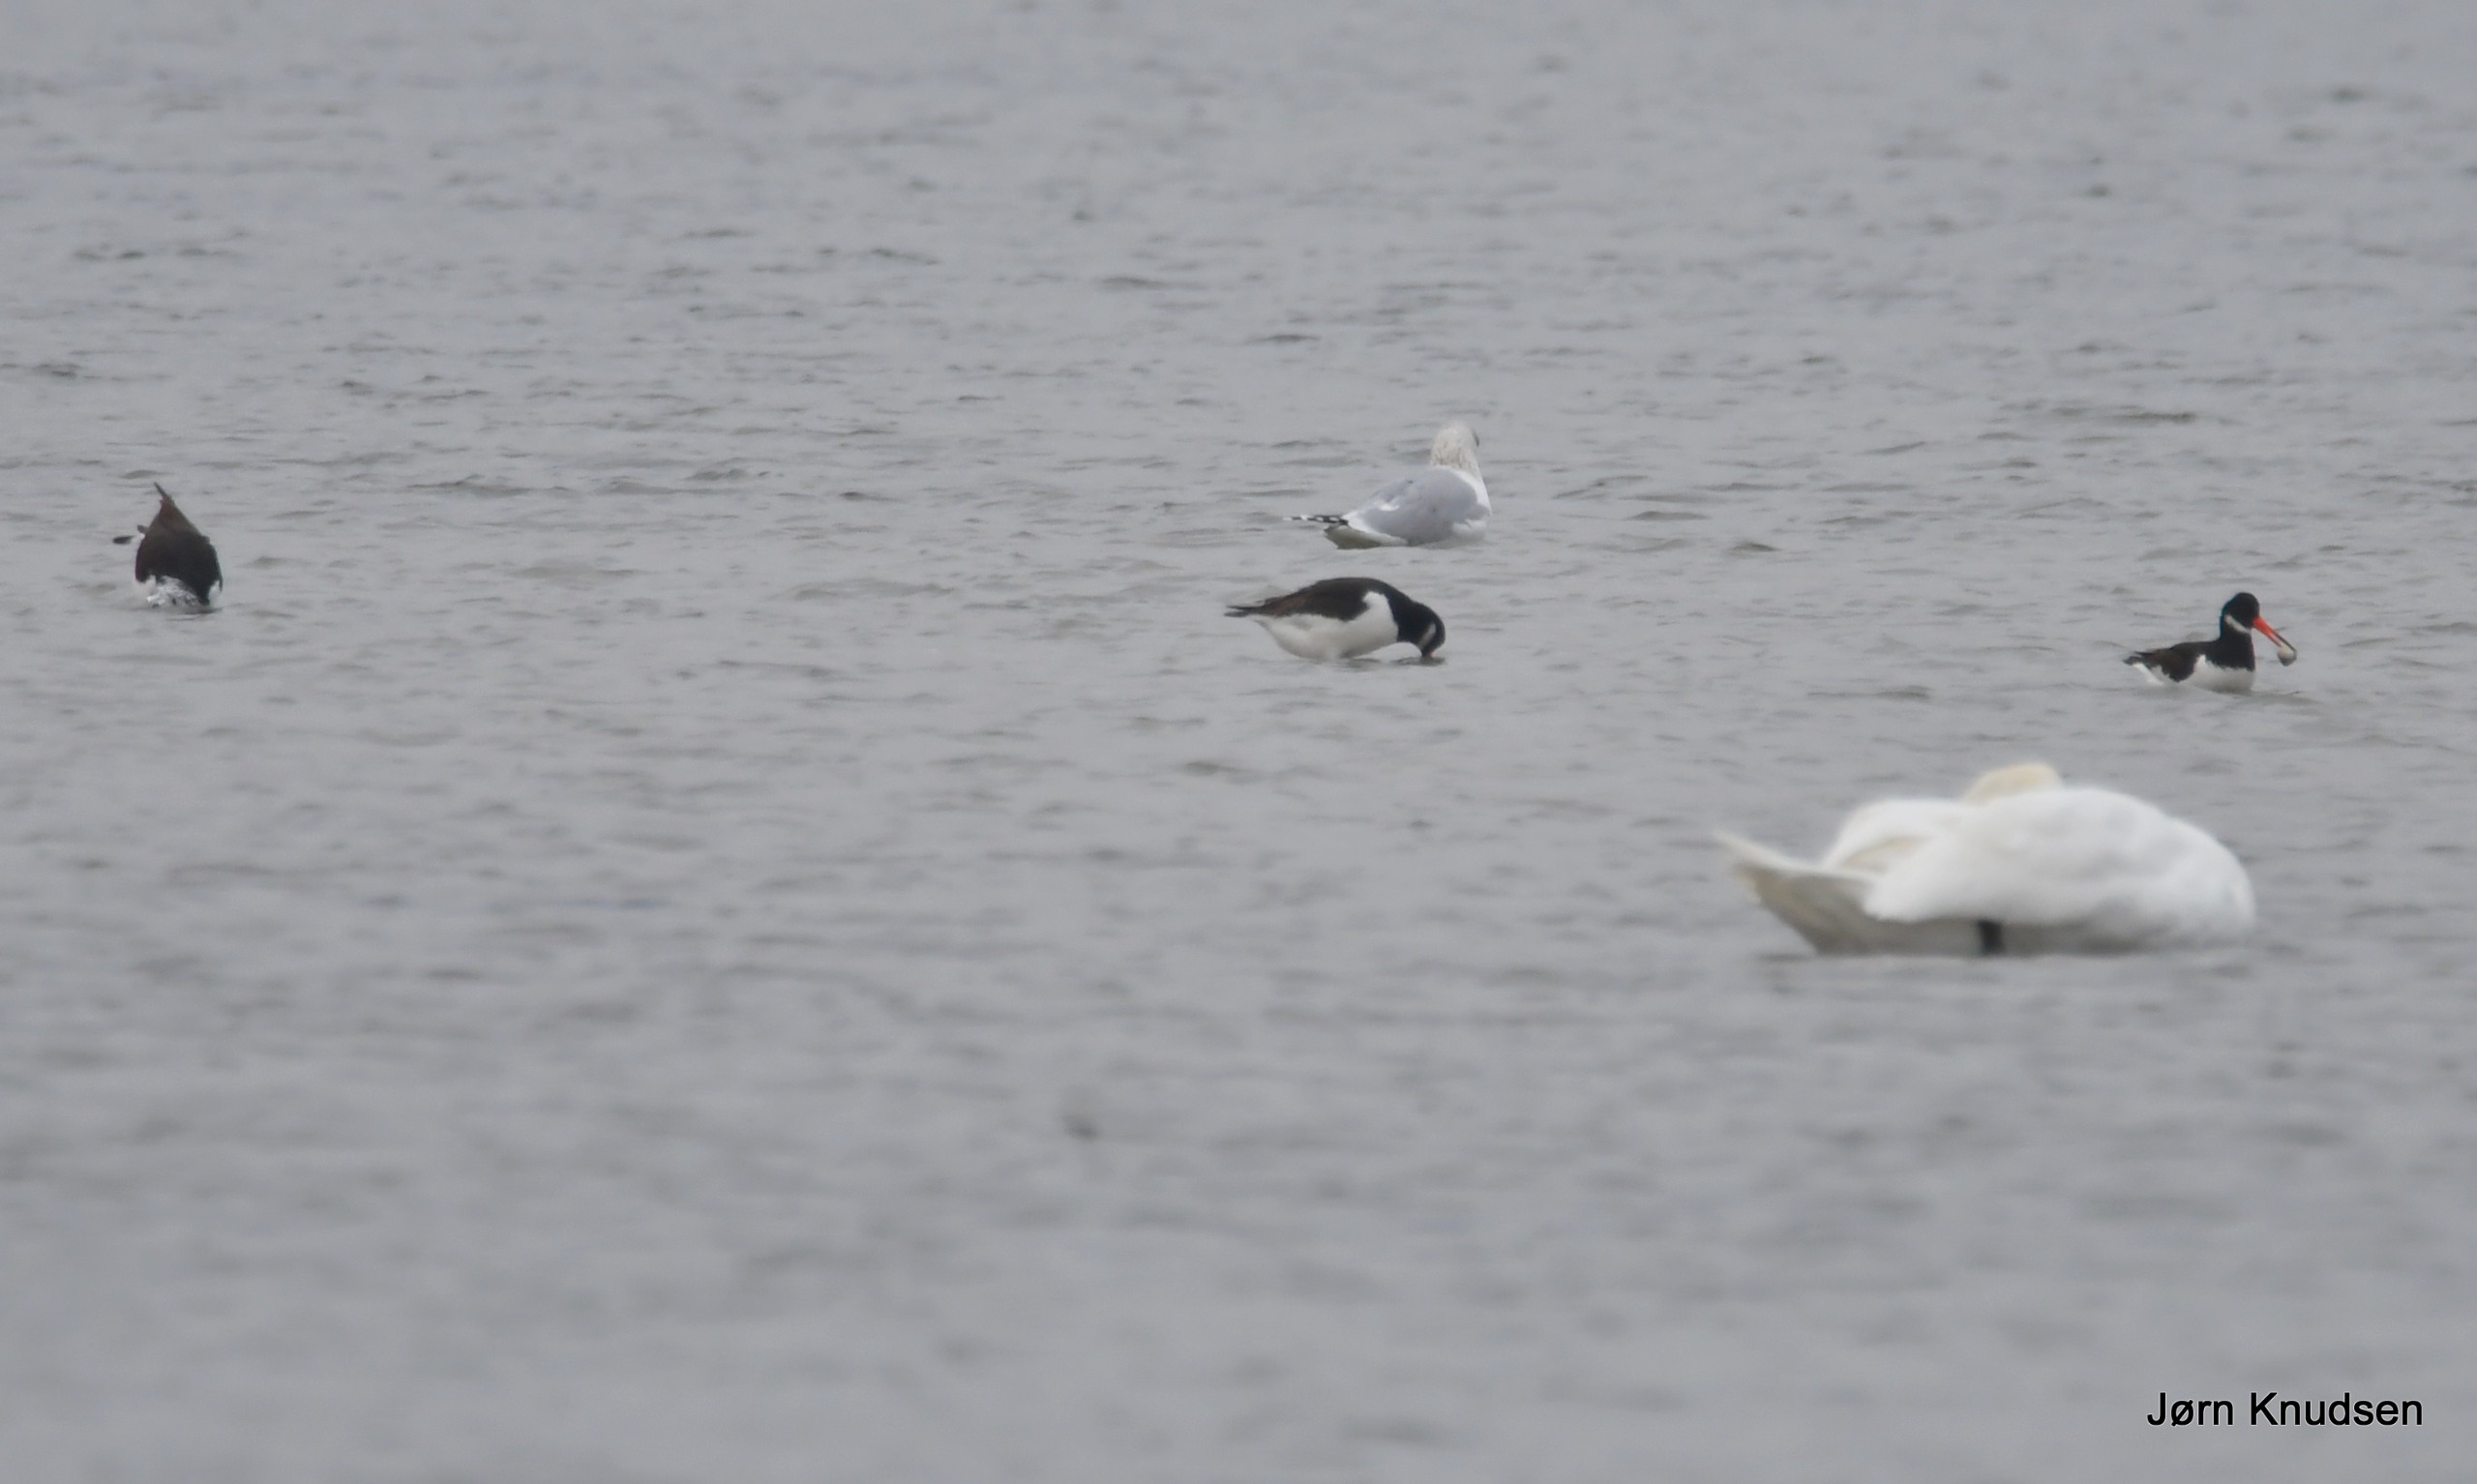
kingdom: Animalia
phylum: Chordata
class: Aves
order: Charadriiformes
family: Haematopodidae
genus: Haematopus
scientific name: Haematopus ostralegus
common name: Strandskade
